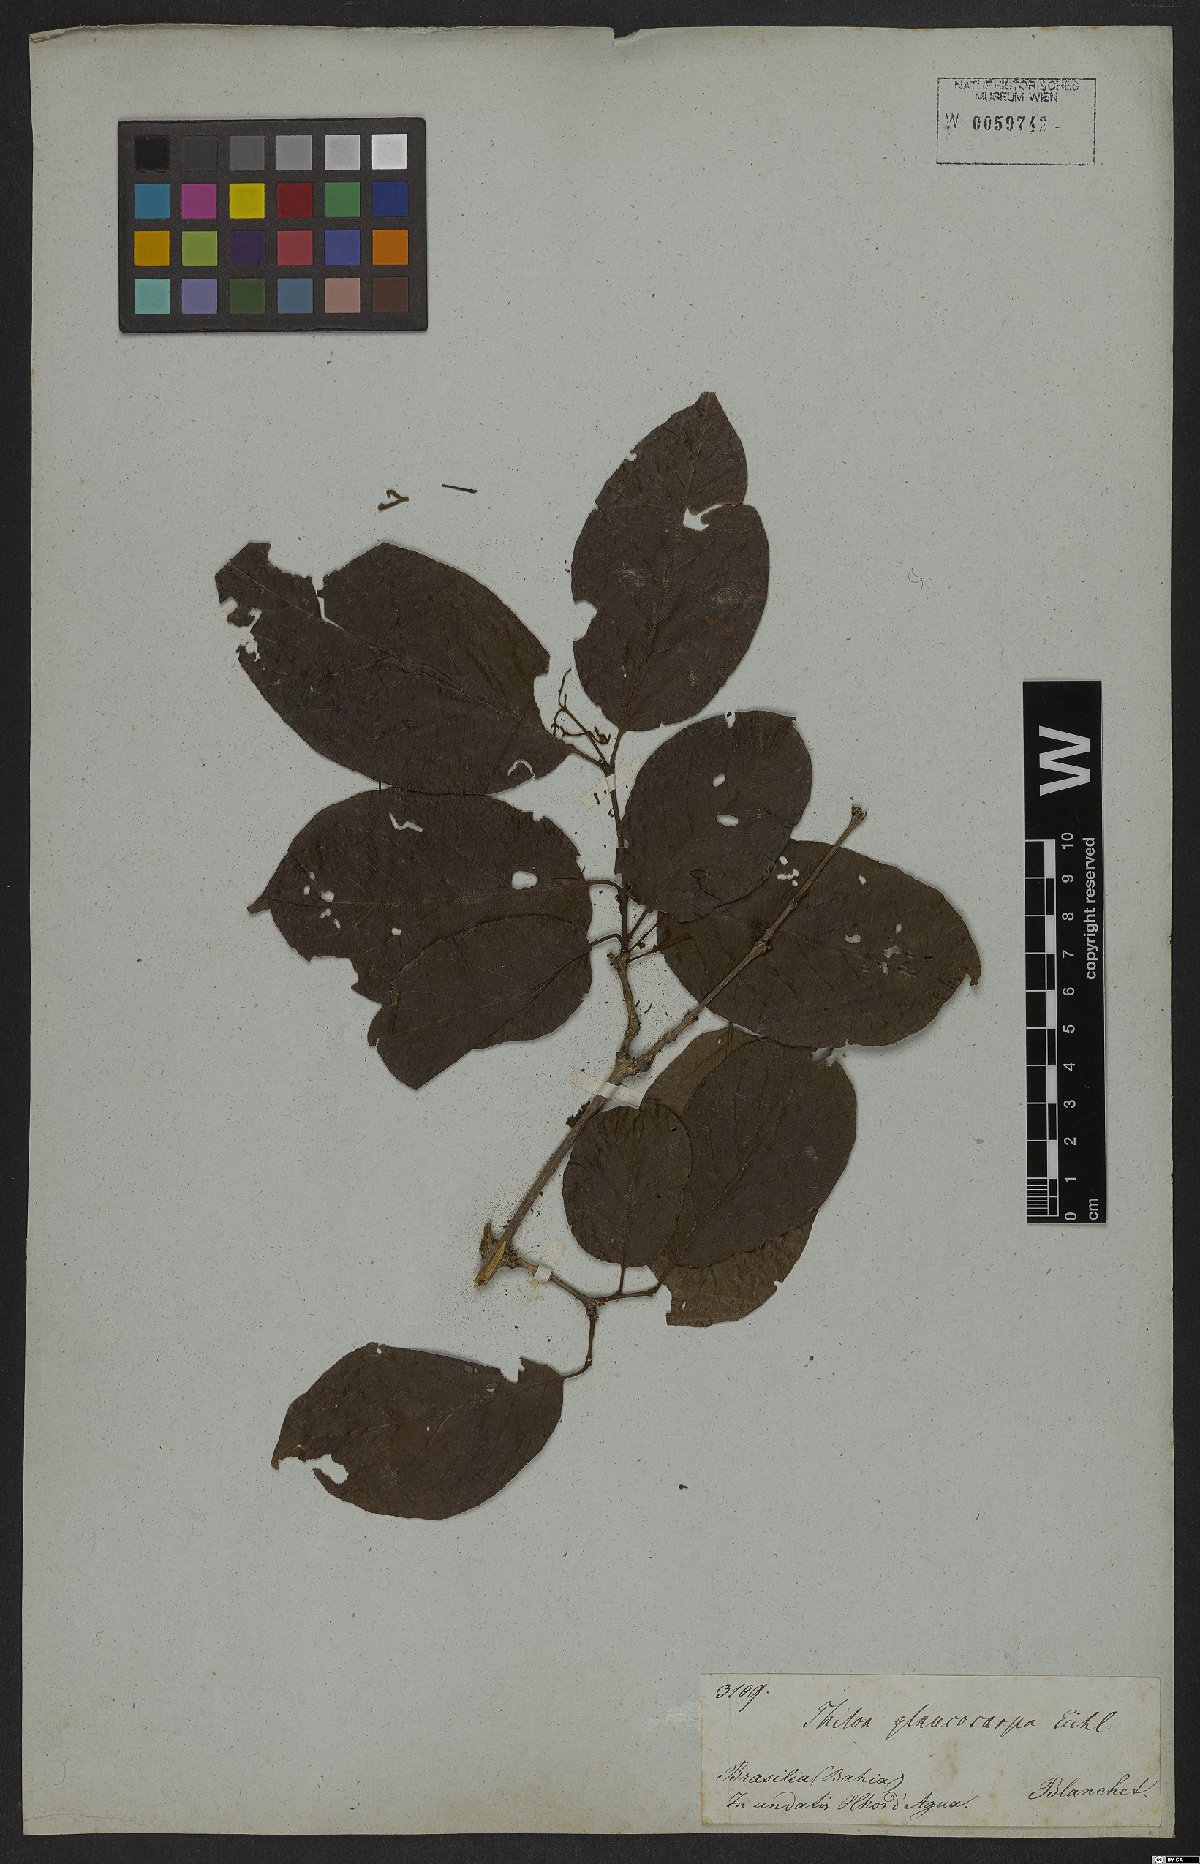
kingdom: Plantae
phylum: Tracheophyta
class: Magnoliopsida
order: Myrtales
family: Combretaceae
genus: Combretum
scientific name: Combretum glaucocarpum
